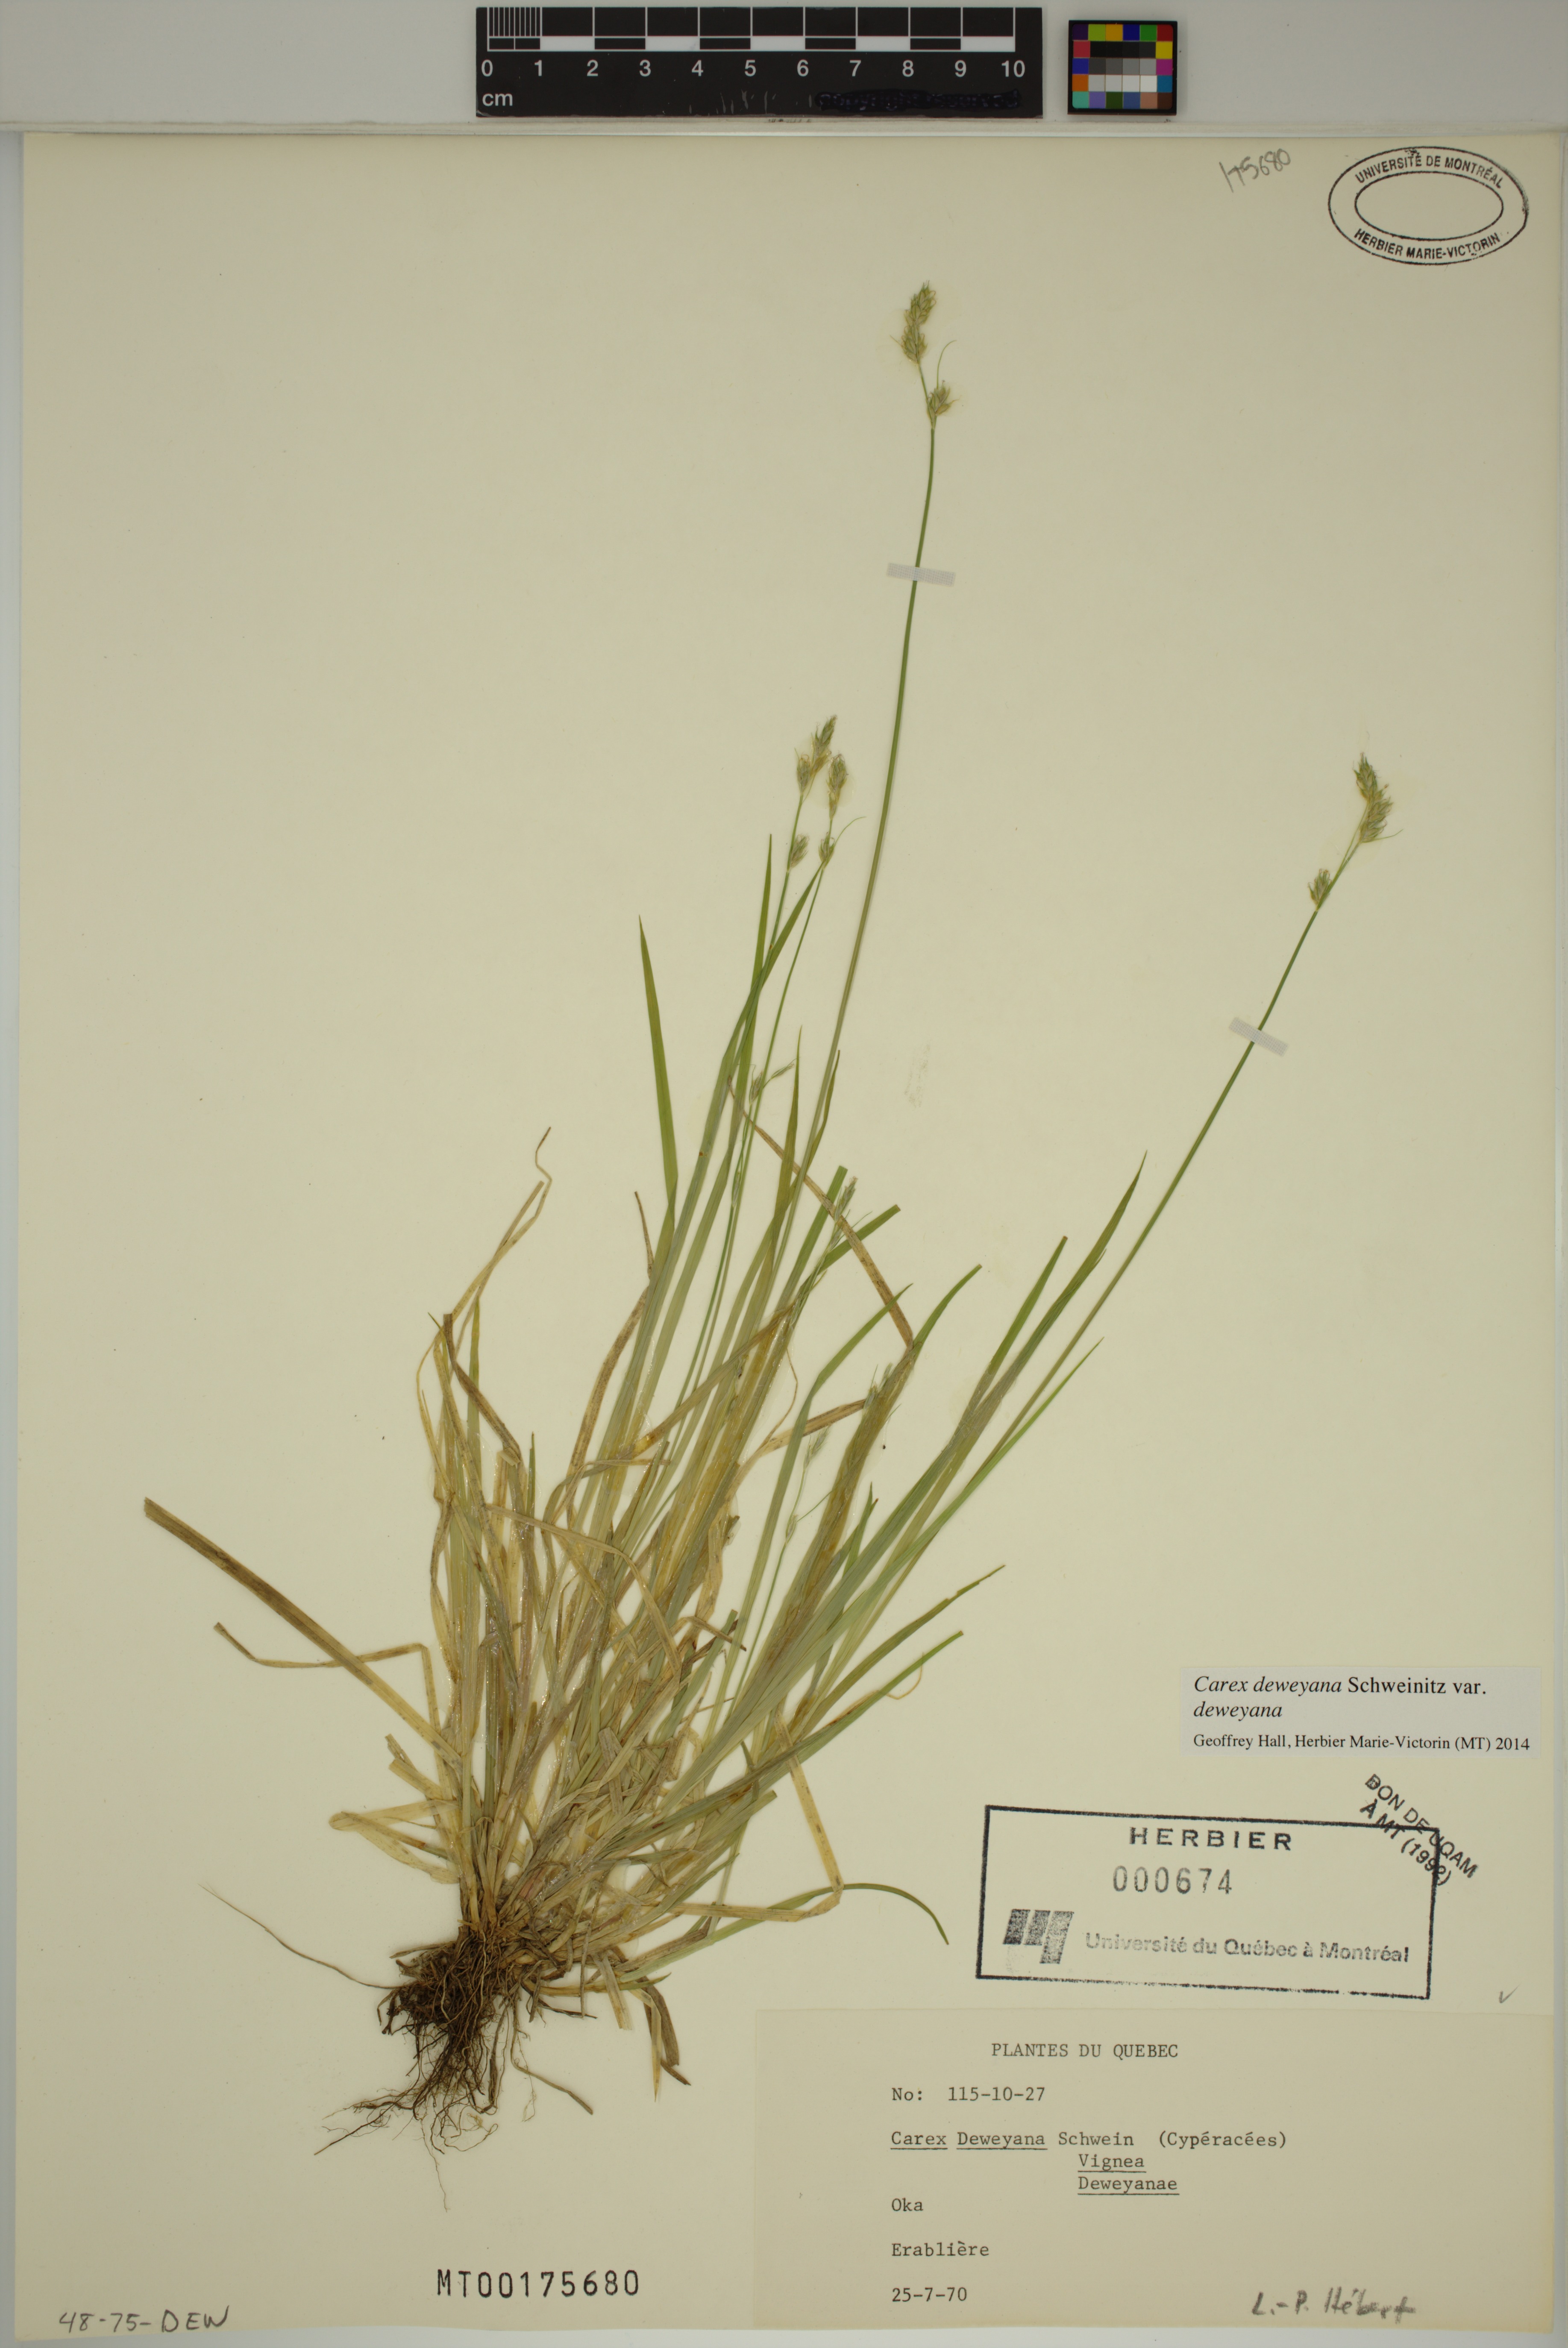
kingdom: Plantae
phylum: Tracheophyta
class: Liliopsida
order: Poales
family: Cyperaceae
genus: Carex
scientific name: Carex deweyana
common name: Dewey's sedge
